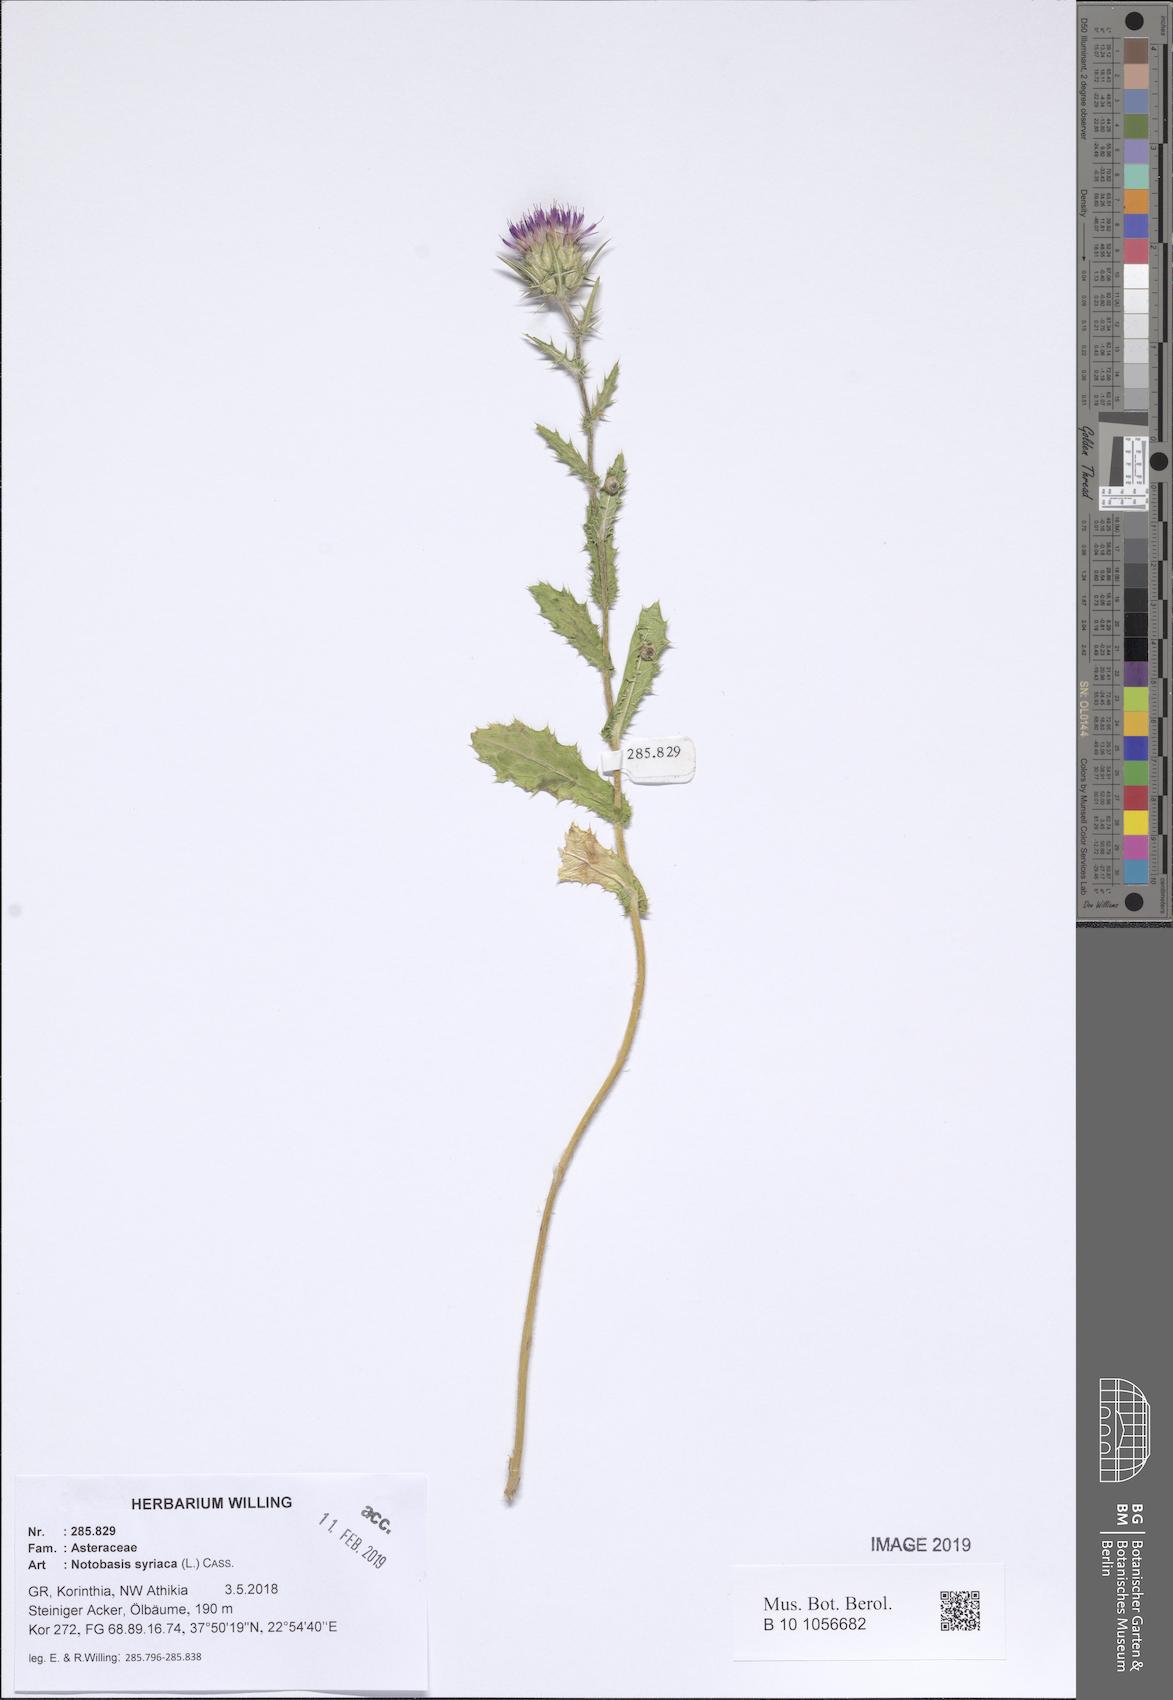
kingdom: Plantae
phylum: Tracheophyta
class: Magnoliopsida
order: Asterales
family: Asteraceae
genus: Notobasis
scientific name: Notobasis syriaca
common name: Syrian thistle
